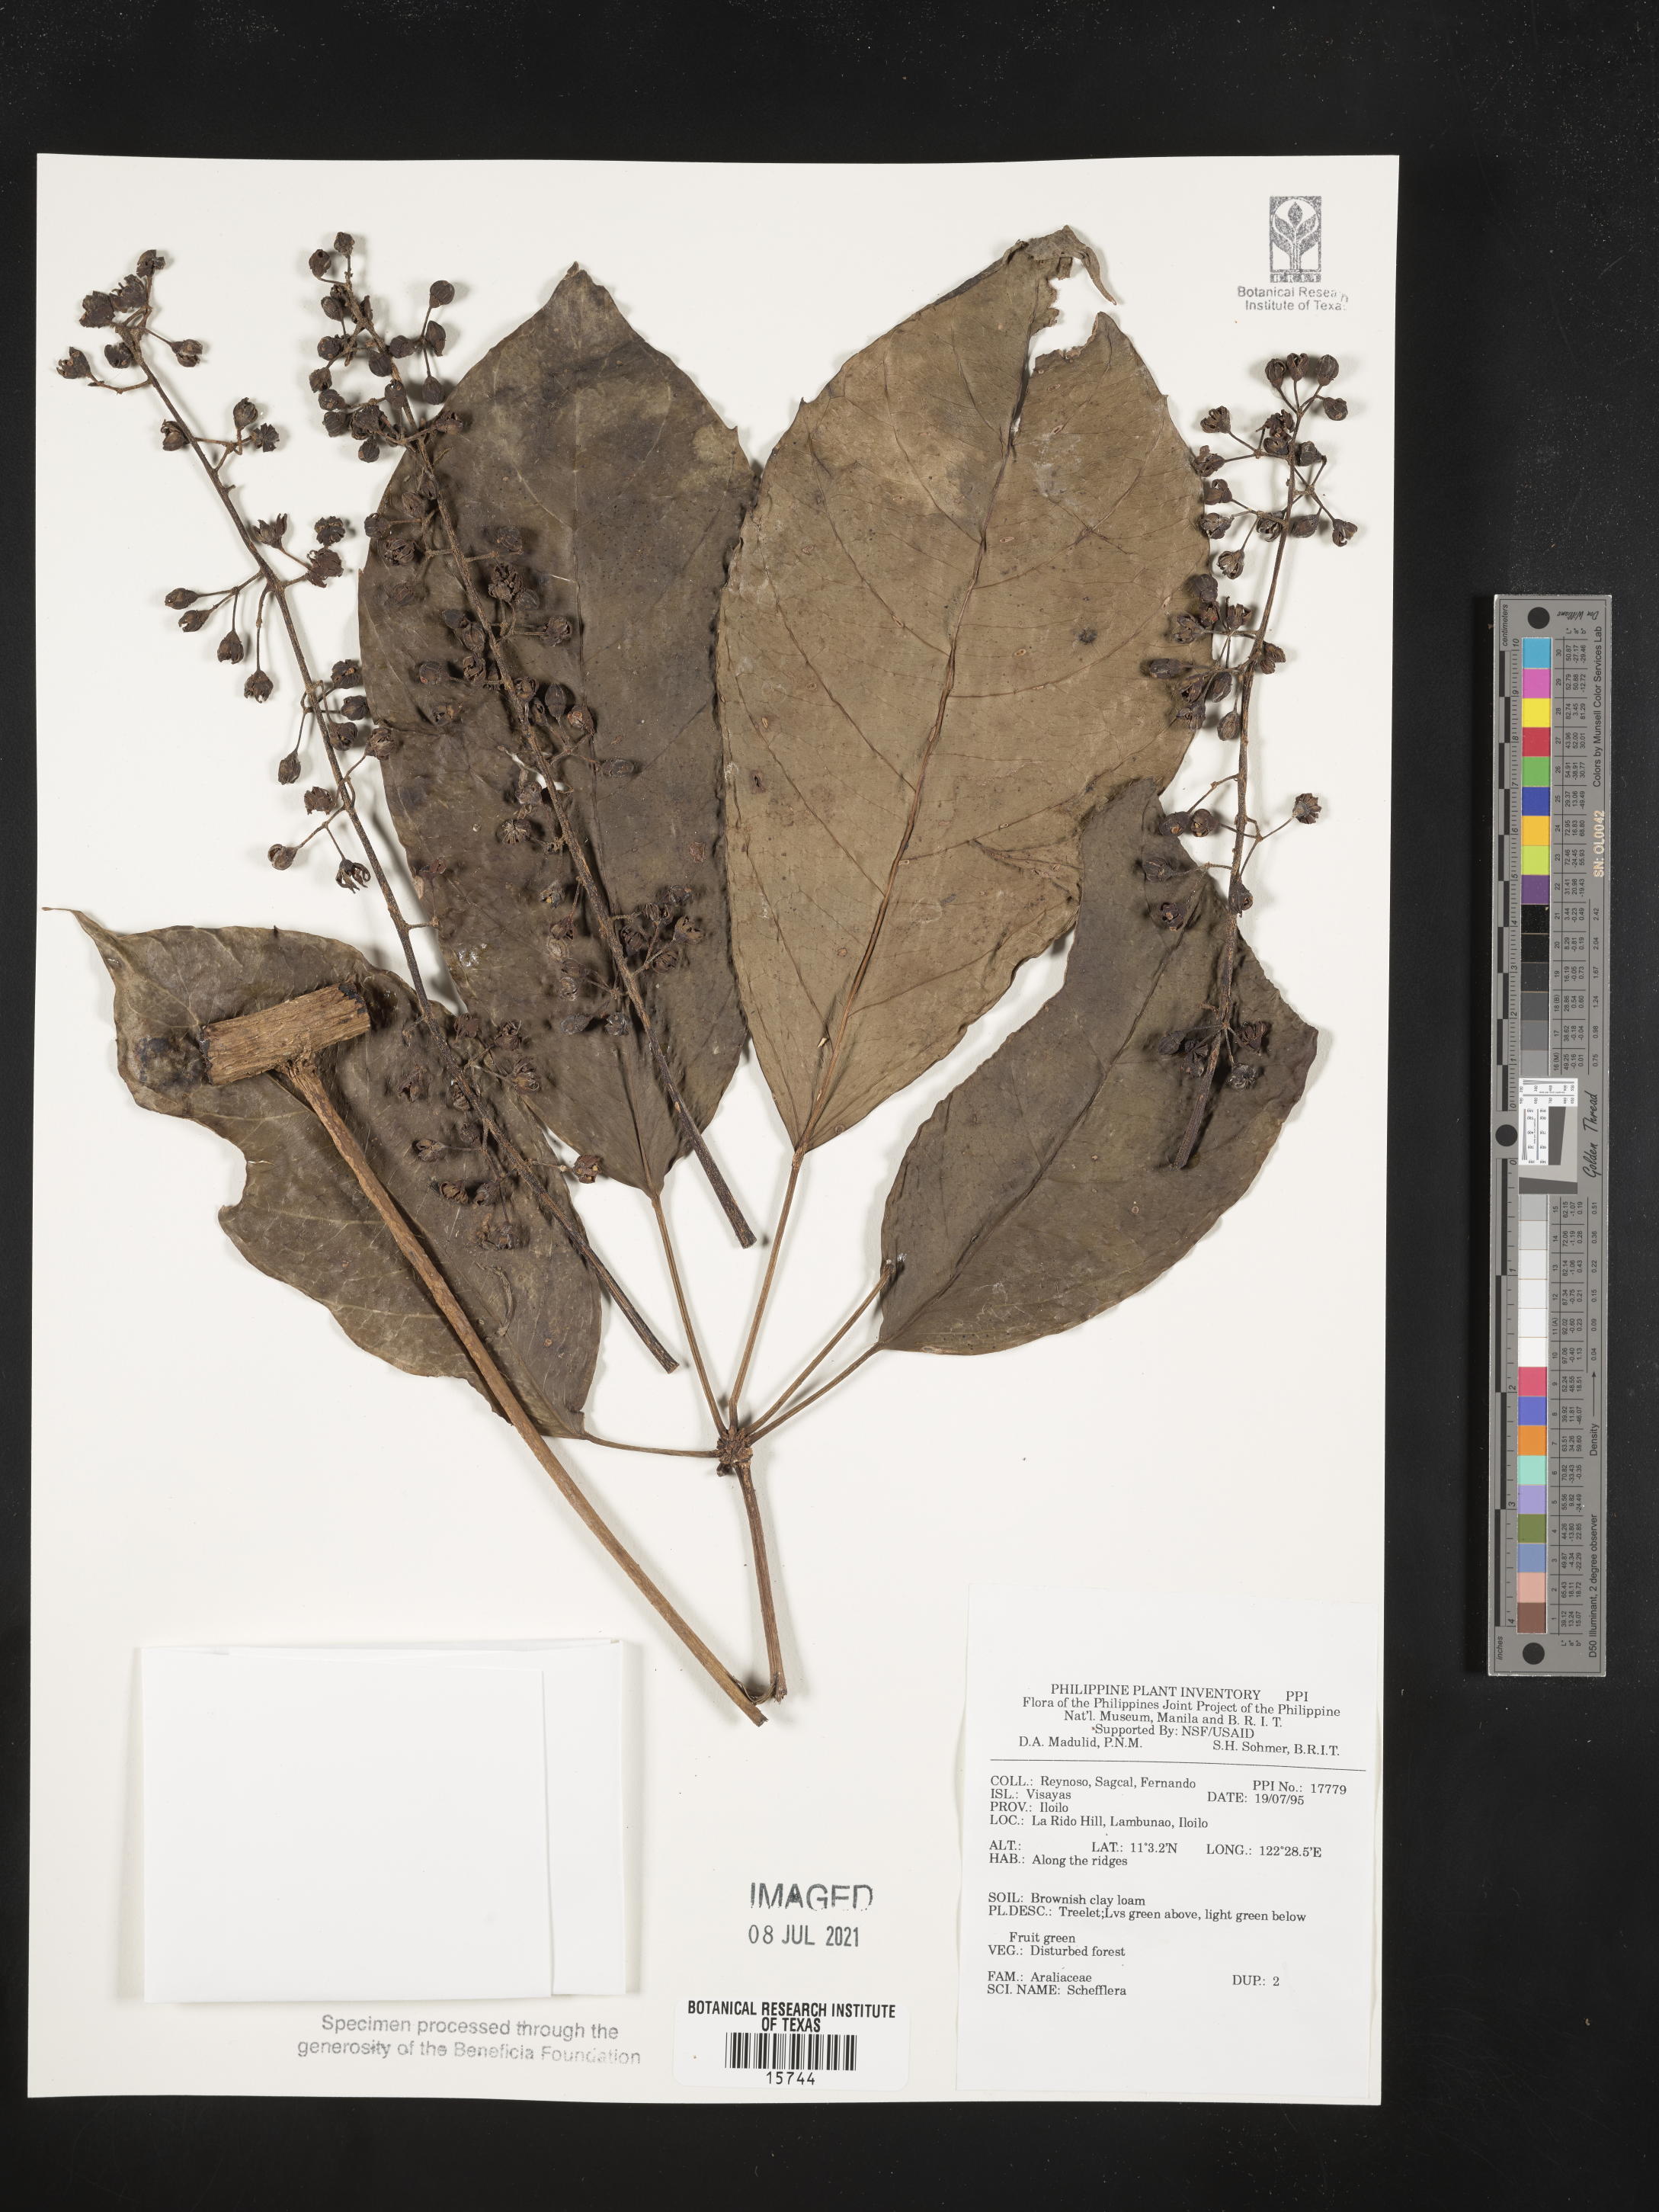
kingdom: Plantae
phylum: Tracheophyta
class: Magnoliopsida
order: Apiales
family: Araliaceae
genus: Schefflera
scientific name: Schefflera
